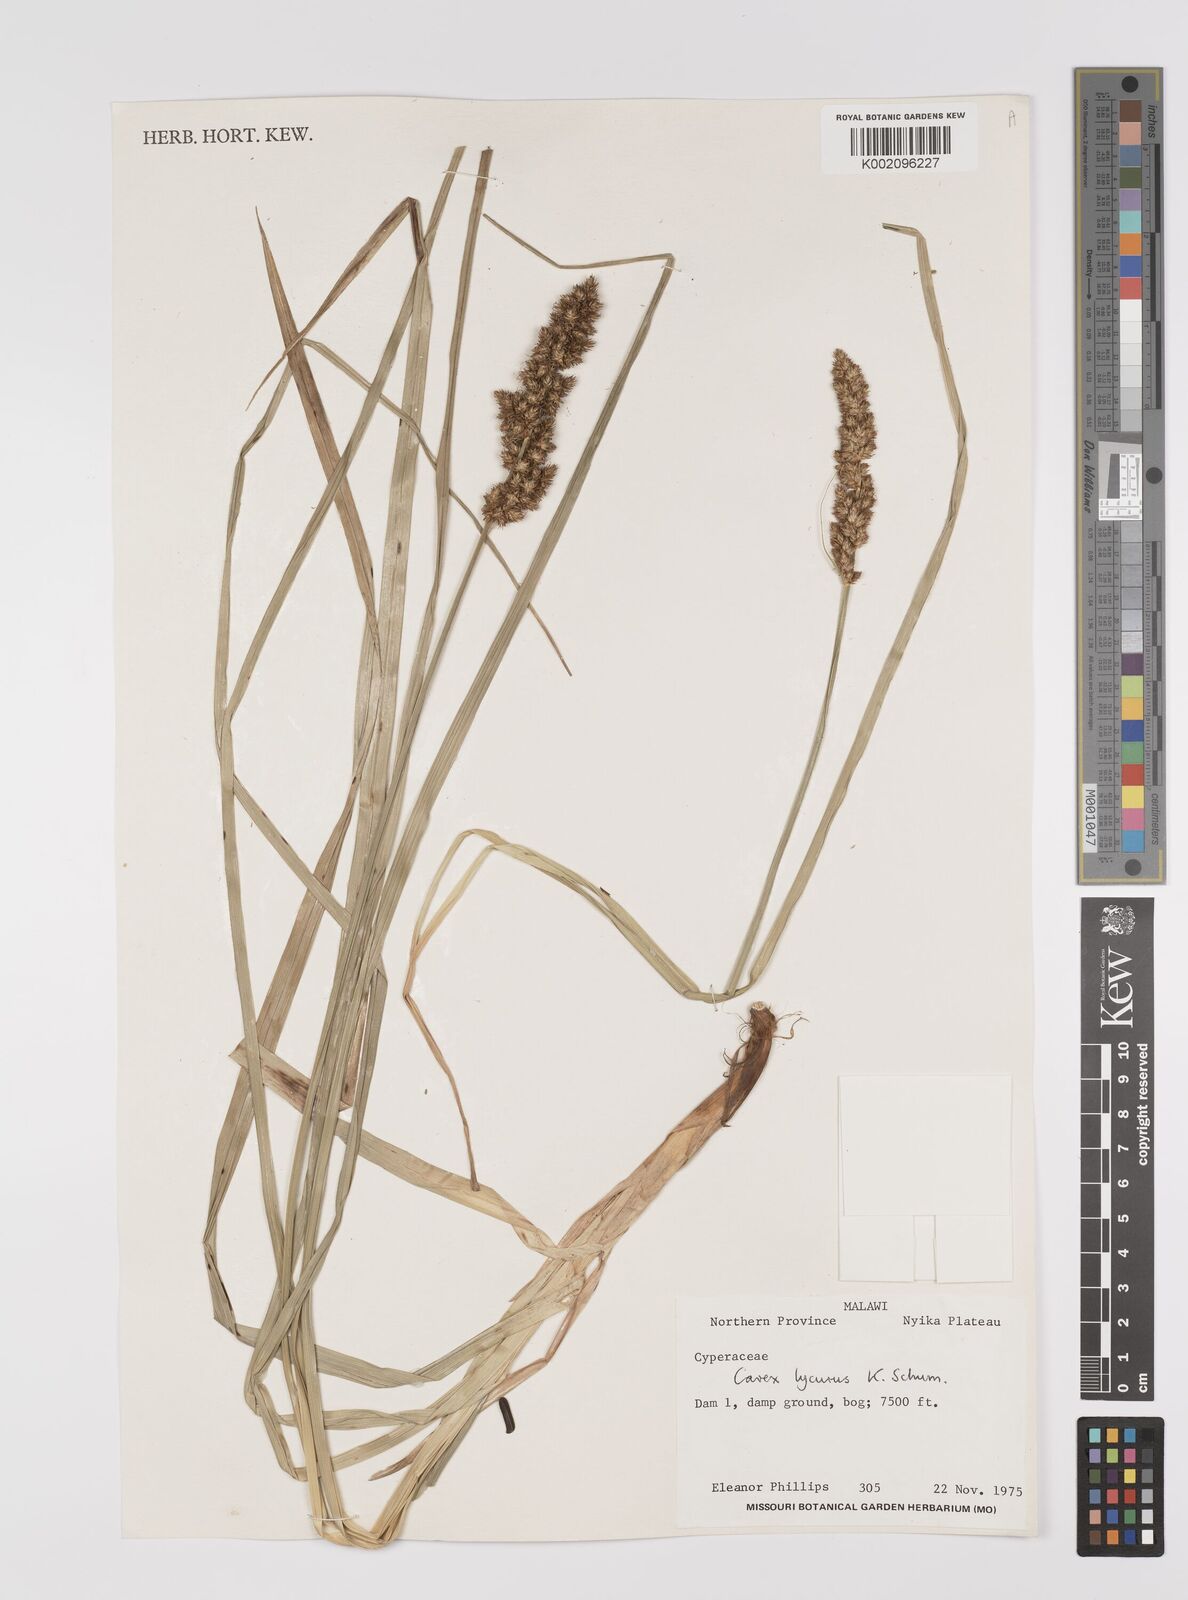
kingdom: Plantae
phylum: Tracheophyta
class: Liliopsida
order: Poales
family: Cyperaceae
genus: Carex
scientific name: Carex lycurus
